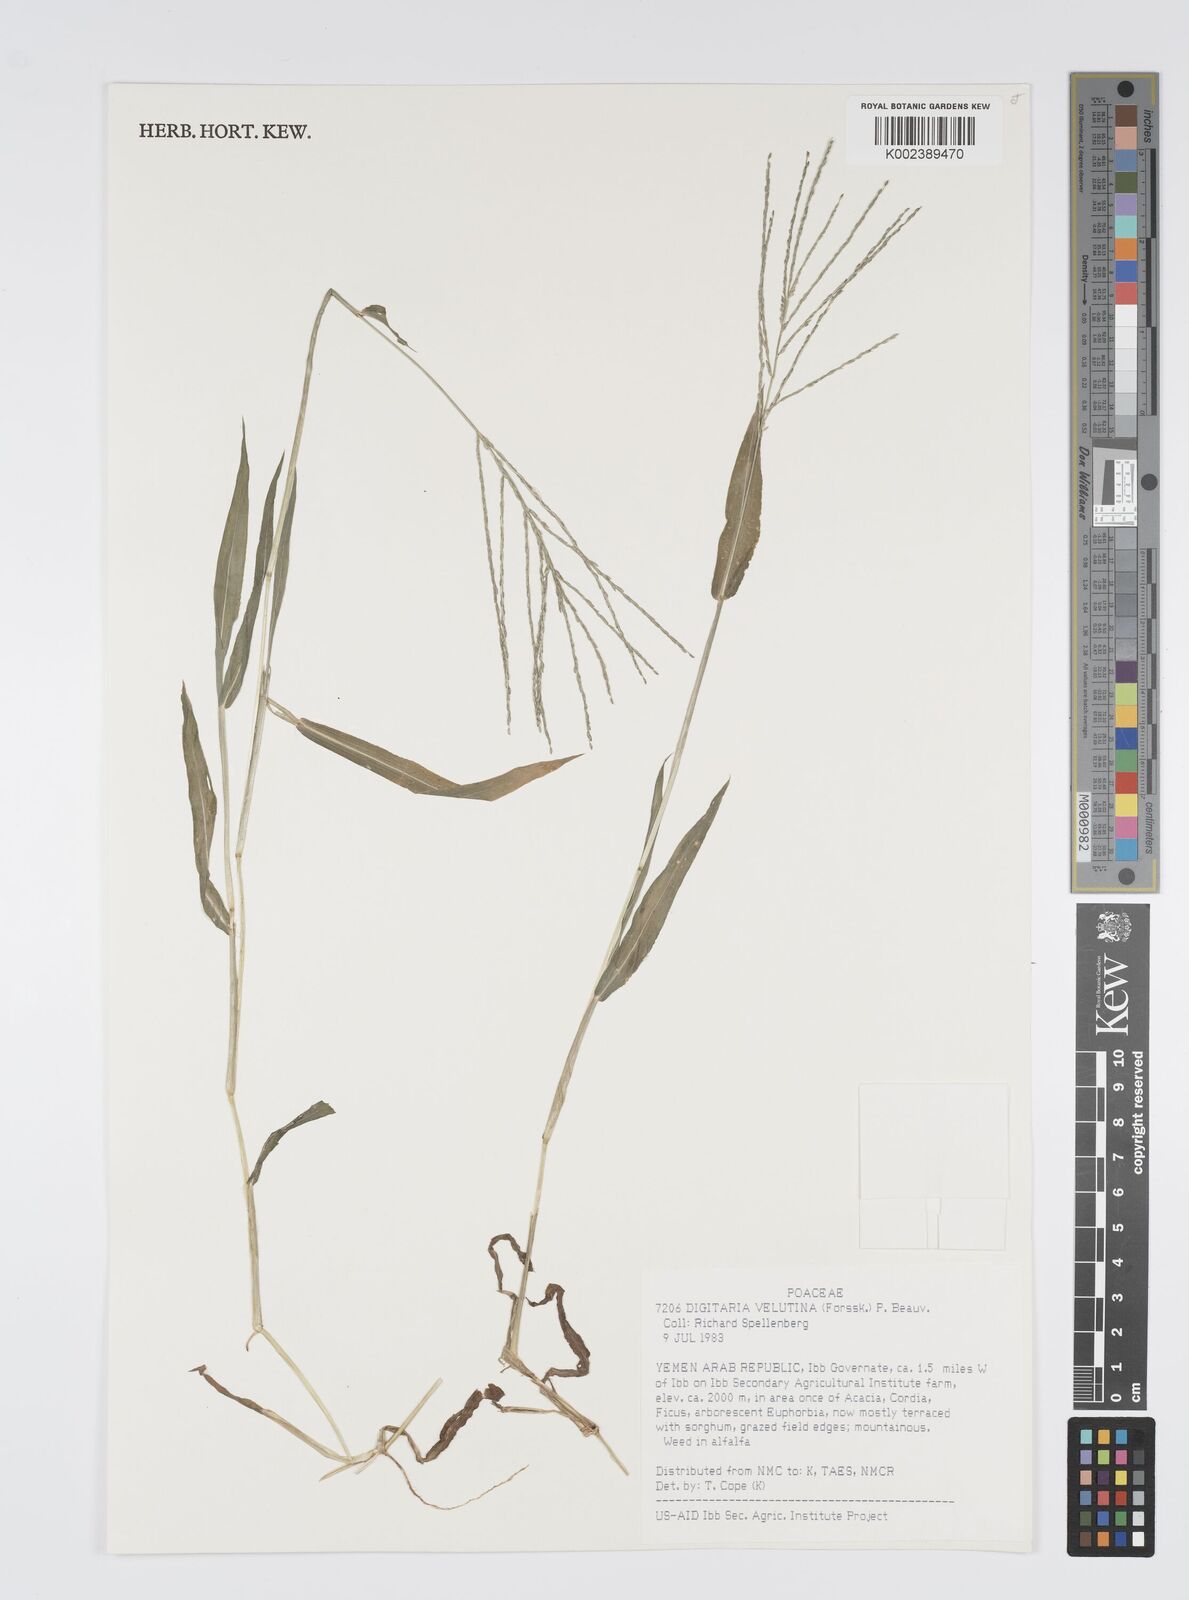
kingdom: Plantae
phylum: Tracheophyta
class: Liliopsida
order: Poales
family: Poaceae
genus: Digitaria
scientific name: Digitaria velutina
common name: Long-plume finger grass
